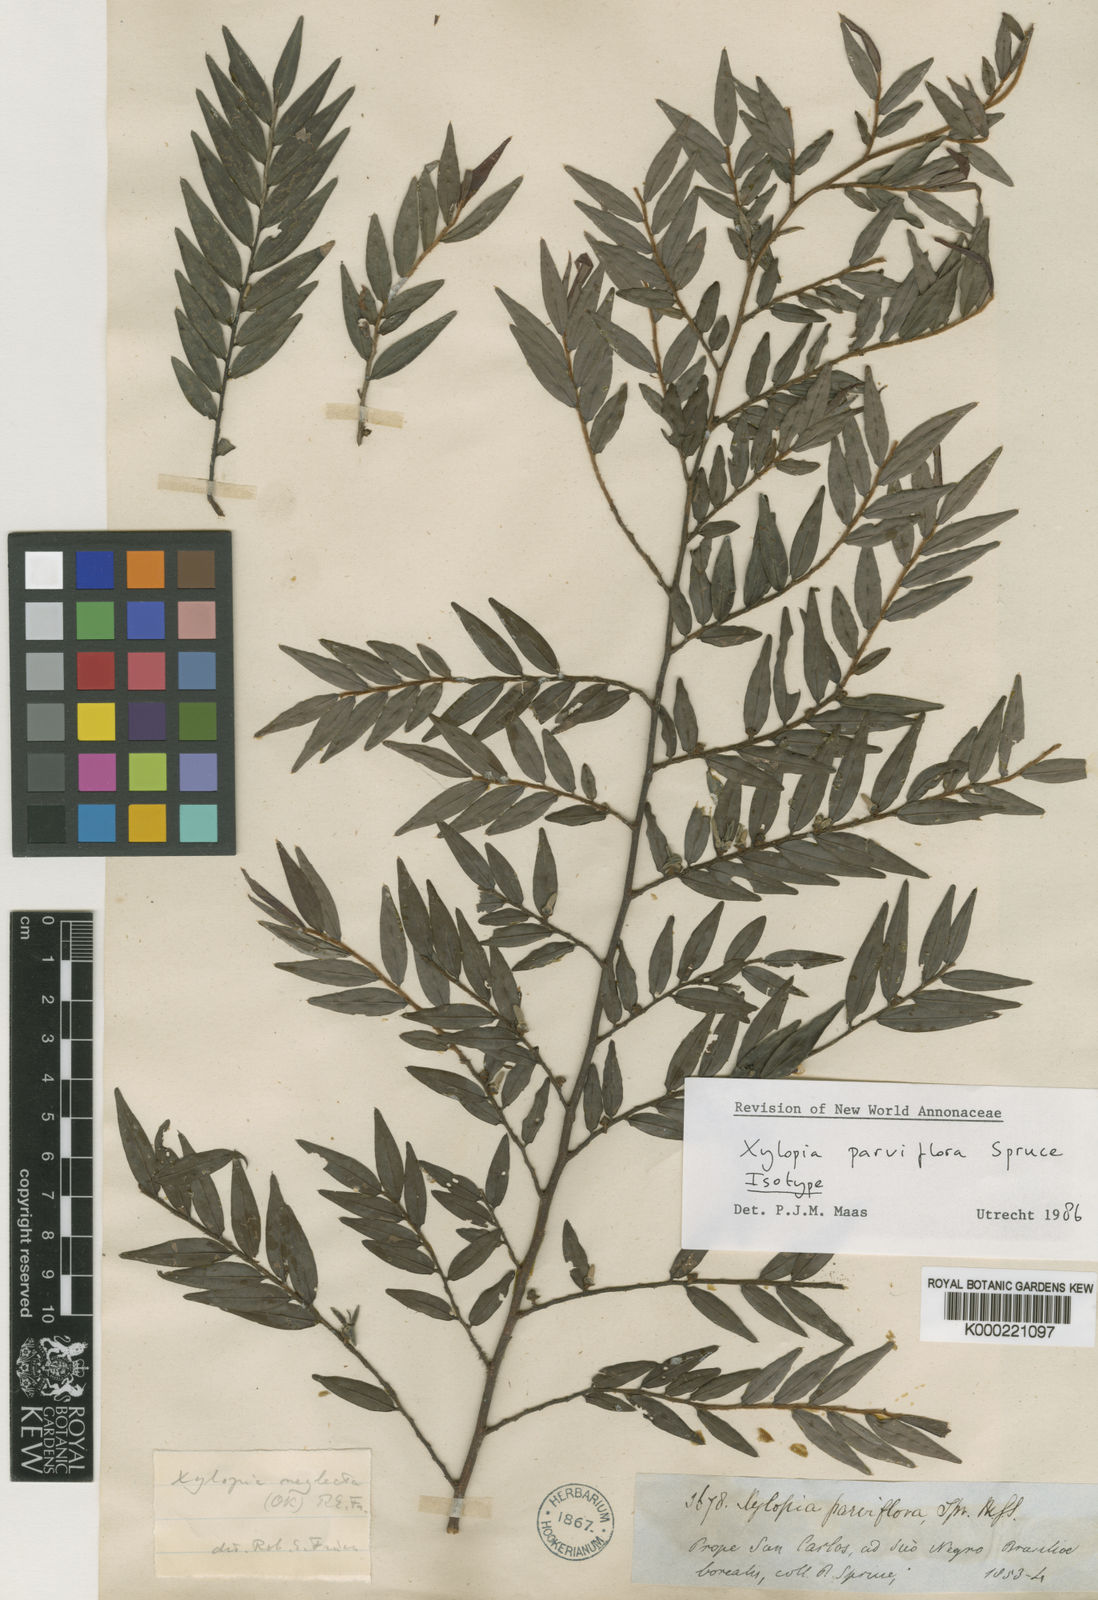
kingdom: Plantae
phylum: Tracheophyta
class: Magnoliopsida
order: Magnoliales
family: Annonaceae
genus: Xylopia
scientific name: Xylopia neglecta
